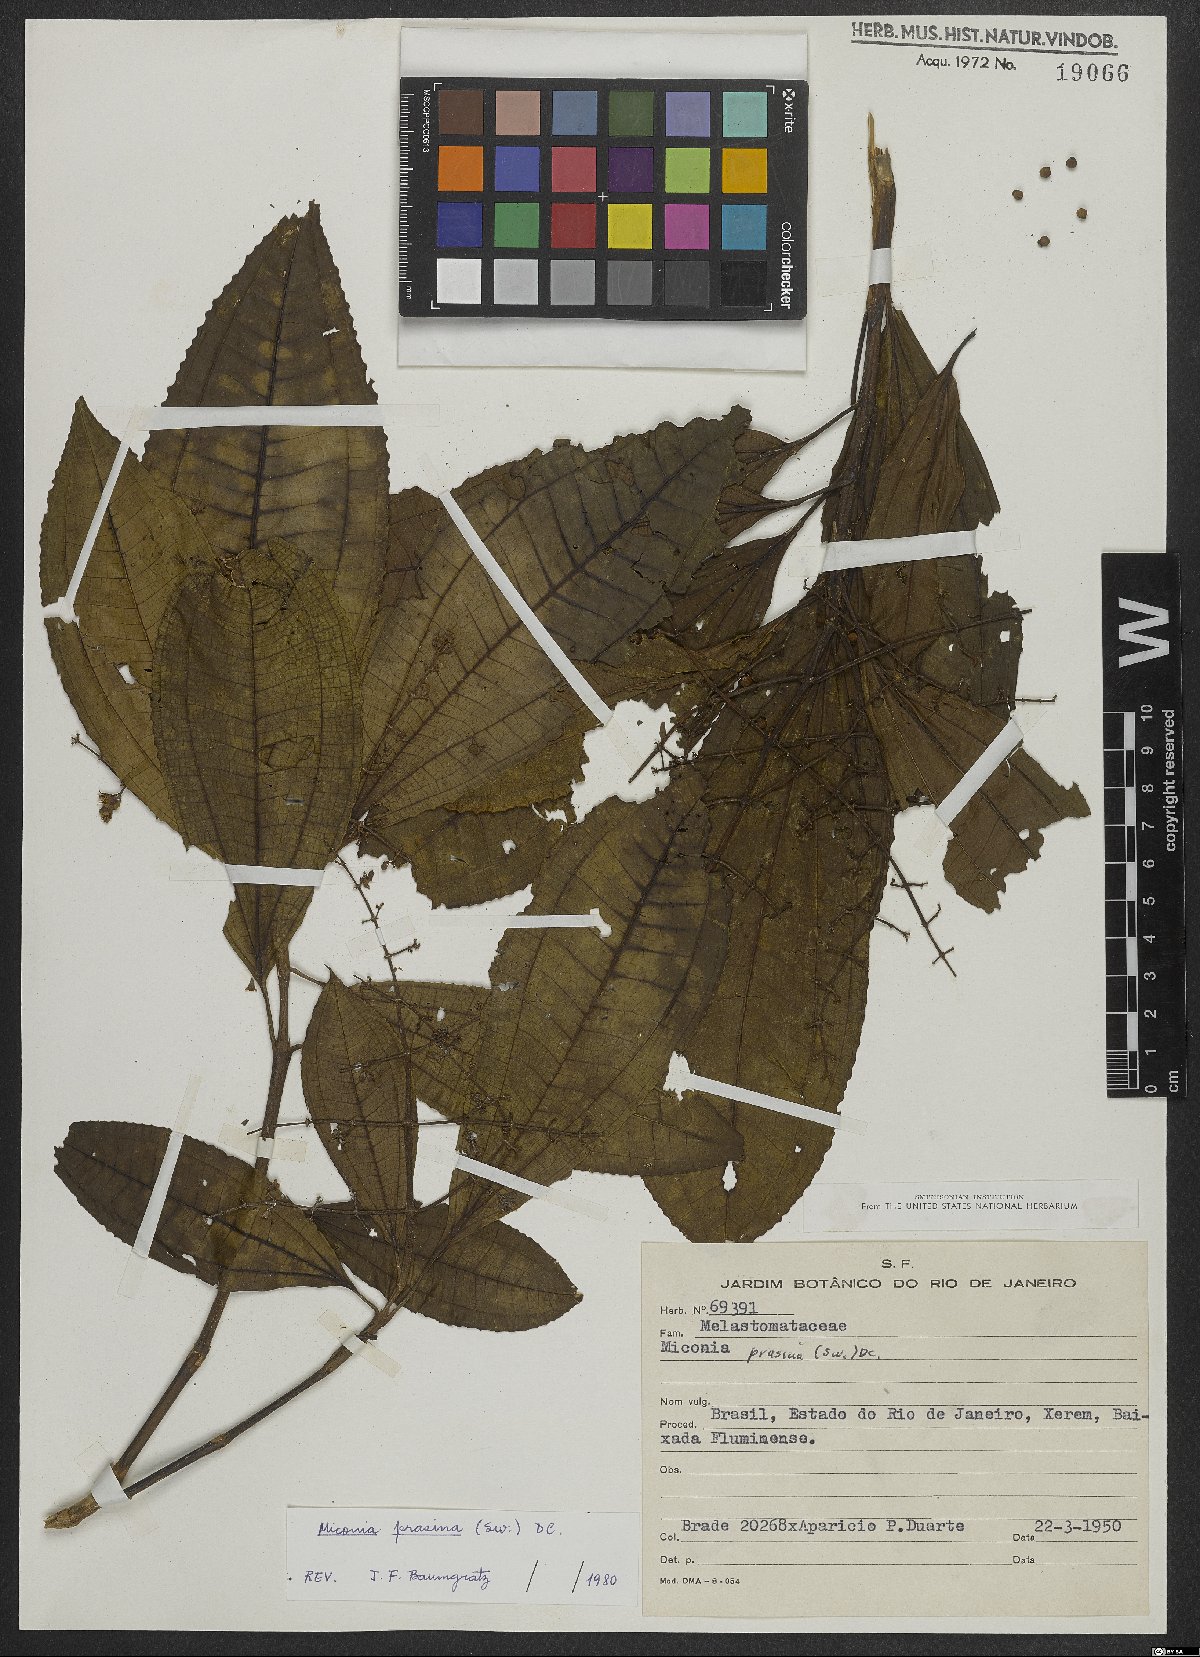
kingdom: Plantae
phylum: Tracheophyta
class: Magnoliopsida
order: Myrtales
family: Melastomataceae
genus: Miconia
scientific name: Miconia prasina
